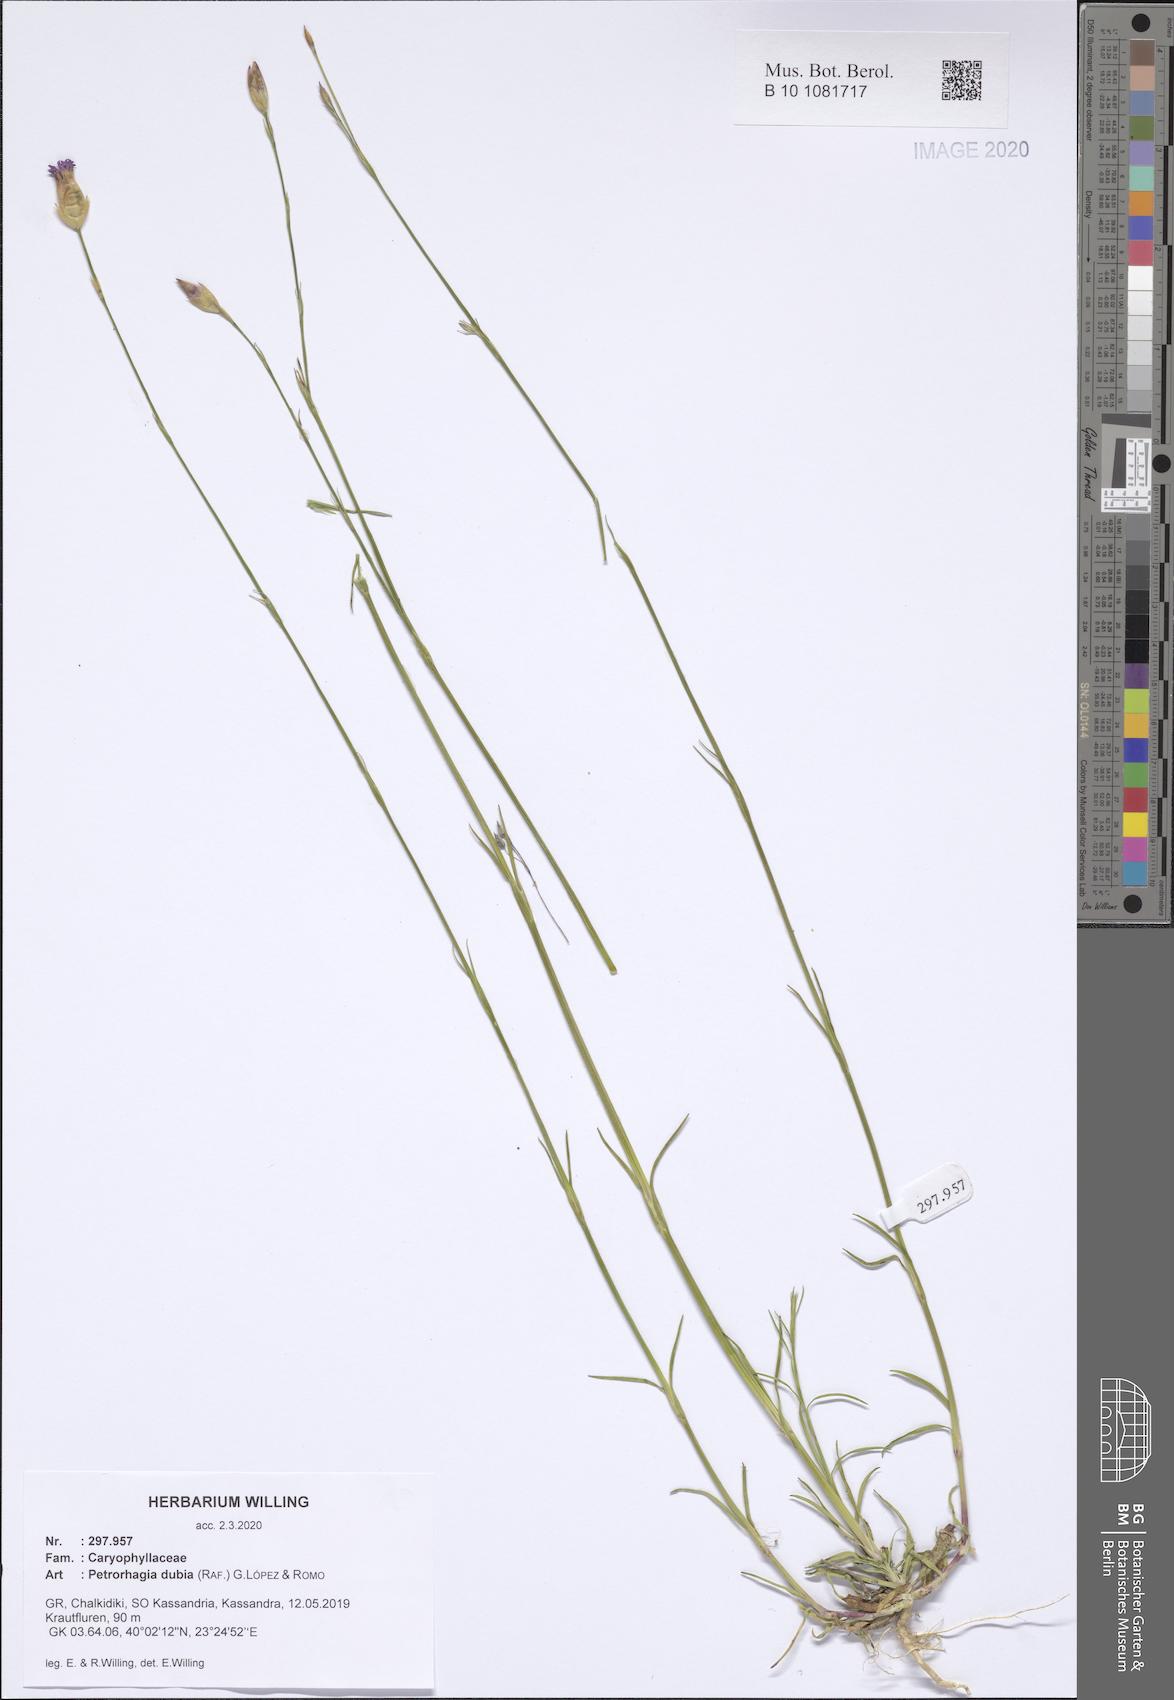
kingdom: Plantae
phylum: Tracheophyta
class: Magnoliopsida
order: Caryophyllales
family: Caryophyllaceae
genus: Petrorhagia
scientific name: Petrorhagia dubia
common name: Hairypink
